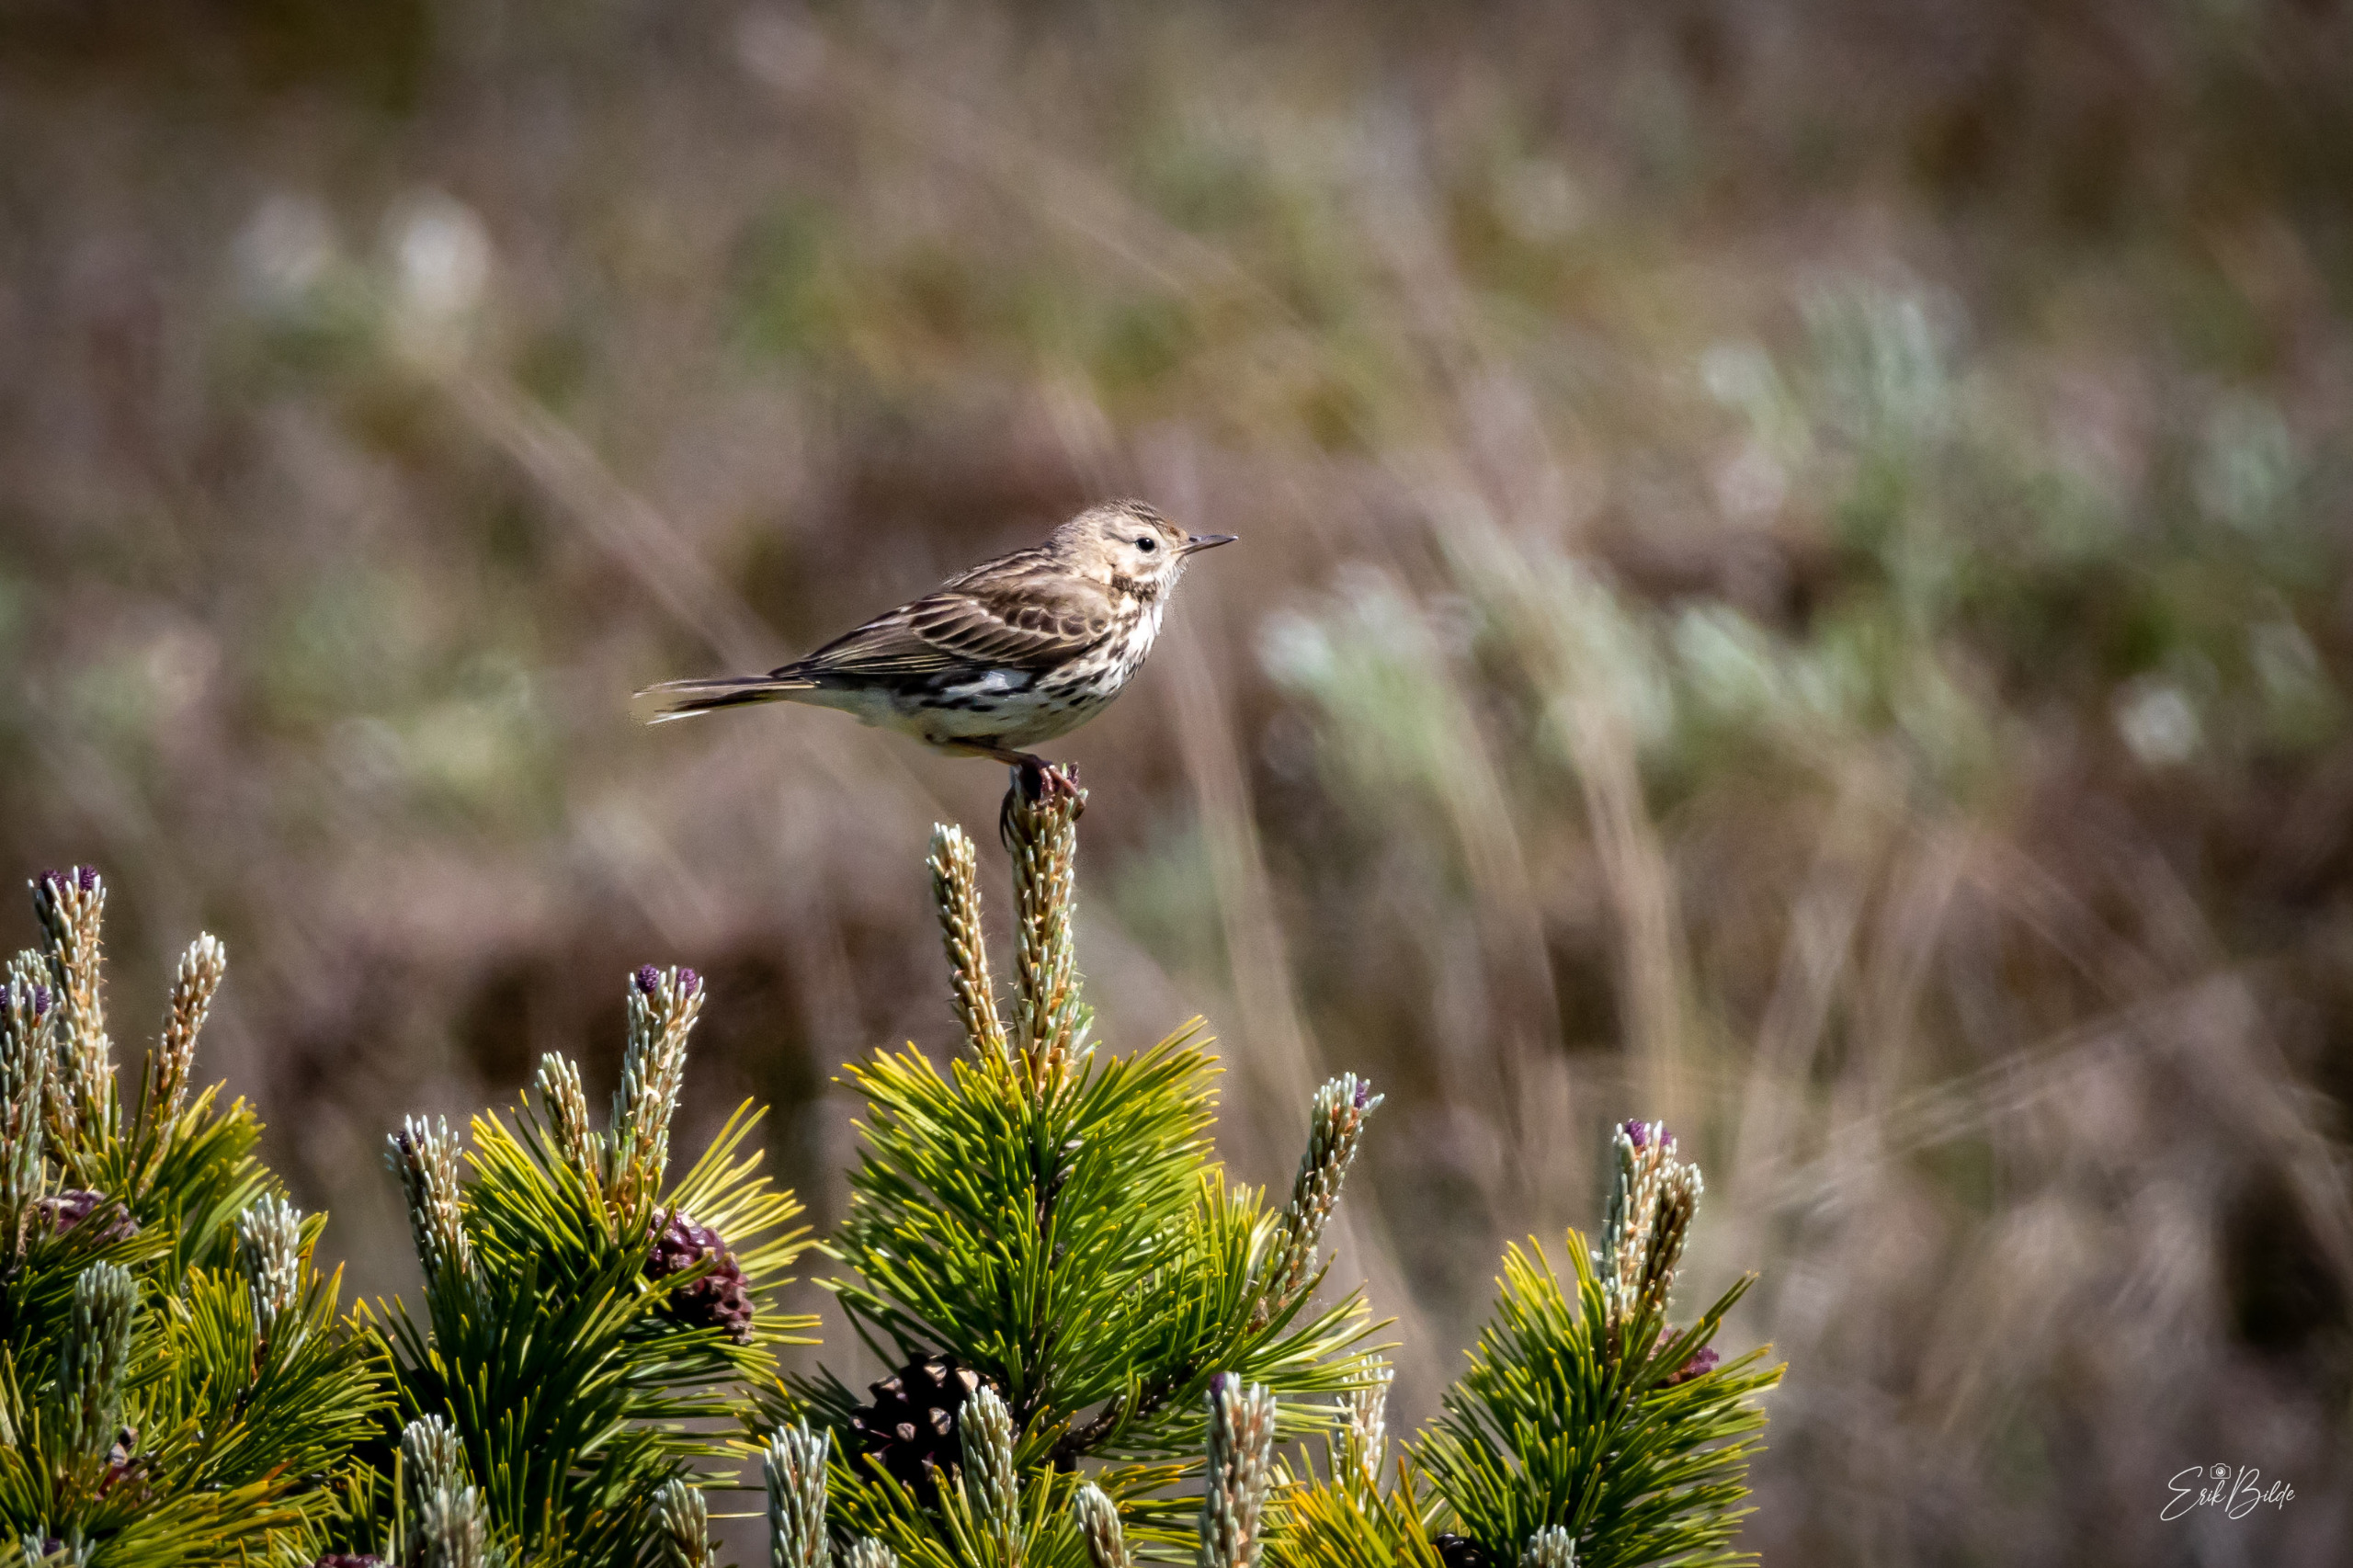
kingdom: Animalia
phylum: Chordata
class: Aves
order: Passeriformes
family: Motacillidae
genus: Anthus
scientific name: Anthus pratensis
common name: Engpiber
